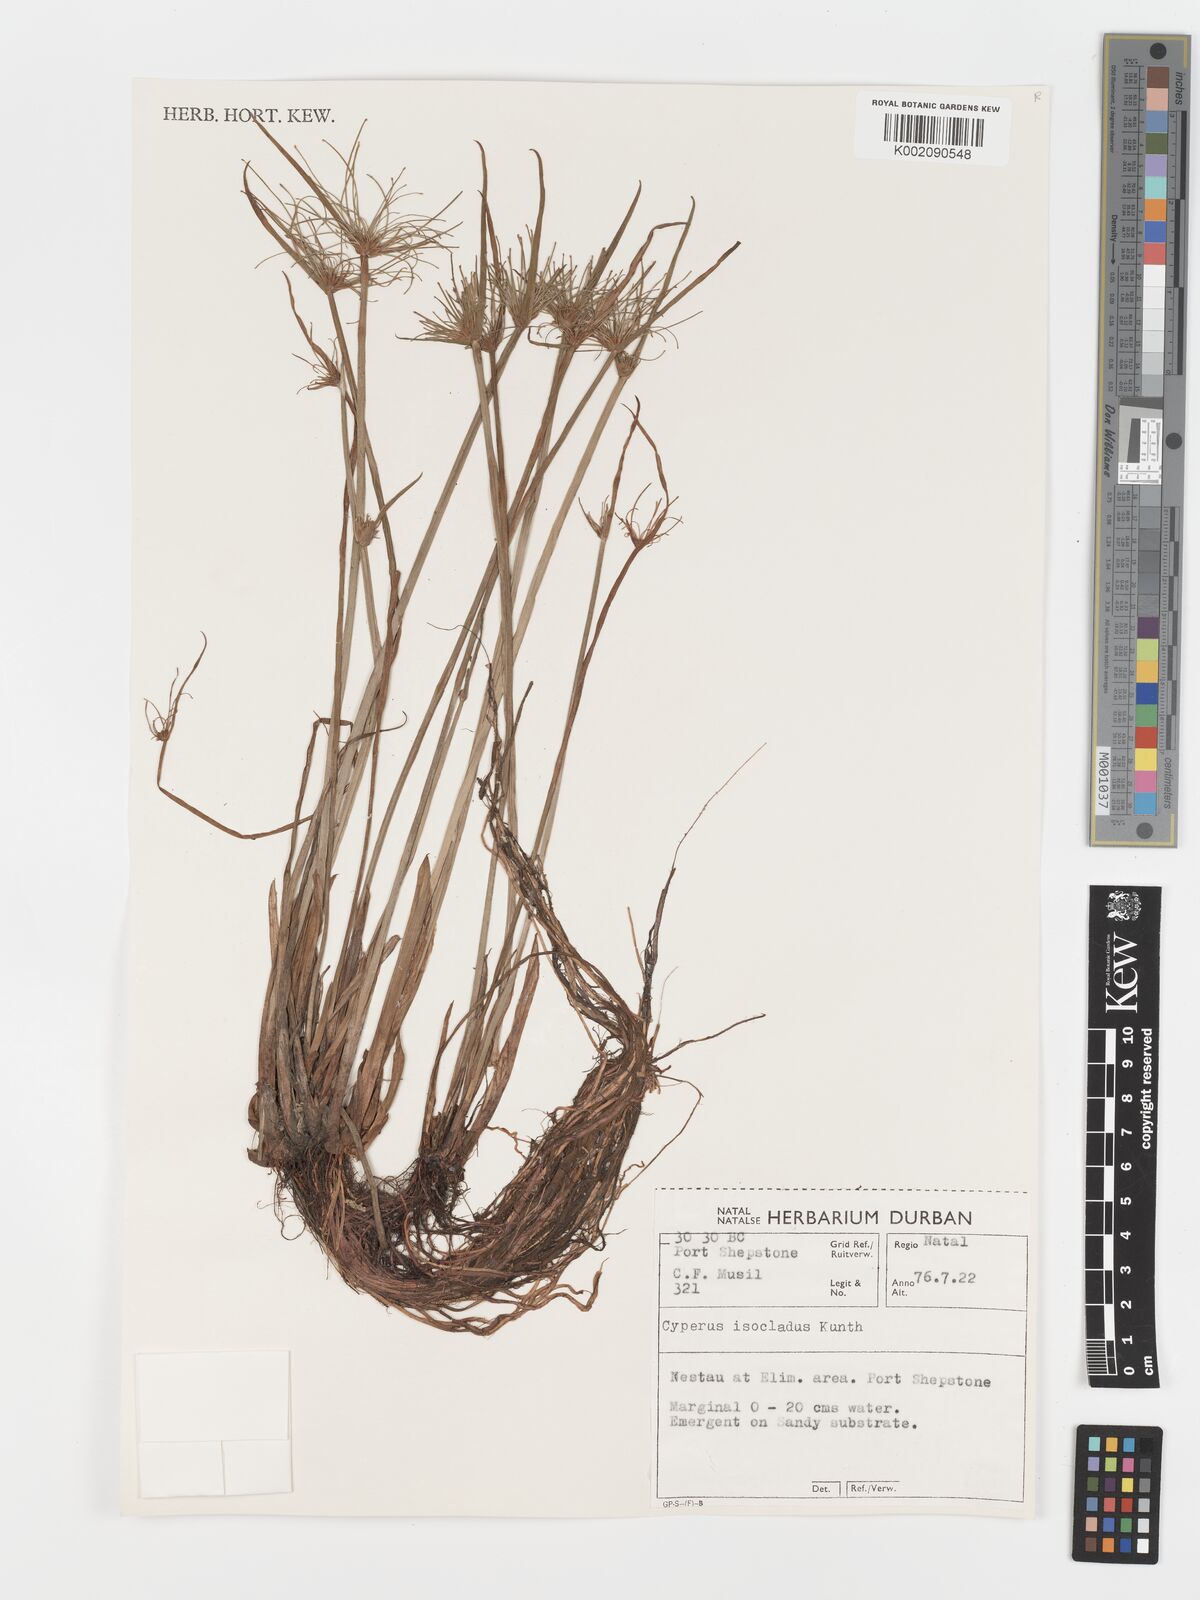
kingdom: Plantae
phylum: Tracheophyta
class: Liliopsida
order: Poales
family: Cyperaceae
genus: Cyperus
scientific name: Cyperus prolifer
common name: Miniature flatsedge
